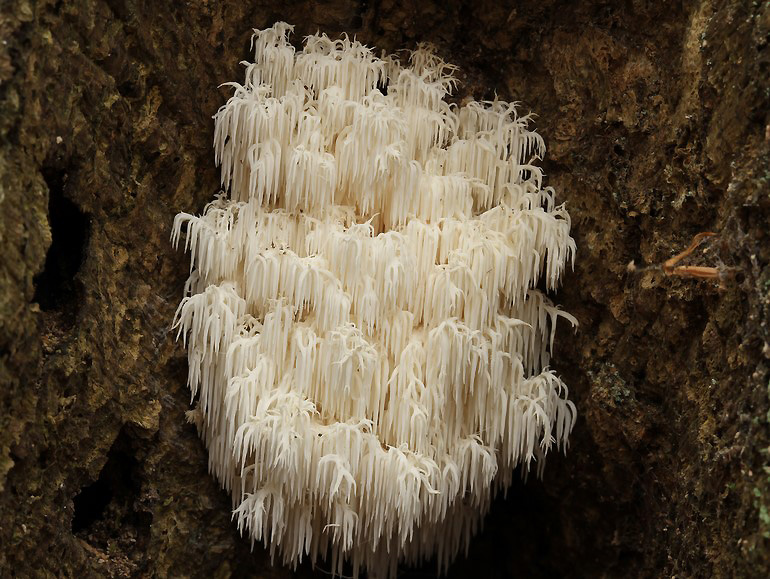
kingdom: Fungi
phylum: Basidiomycota
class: Agaricomycetes
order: Russulales
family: Hericiaceae
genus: Hericium
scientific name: Hericium coralloides
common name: koralpigsvamp
